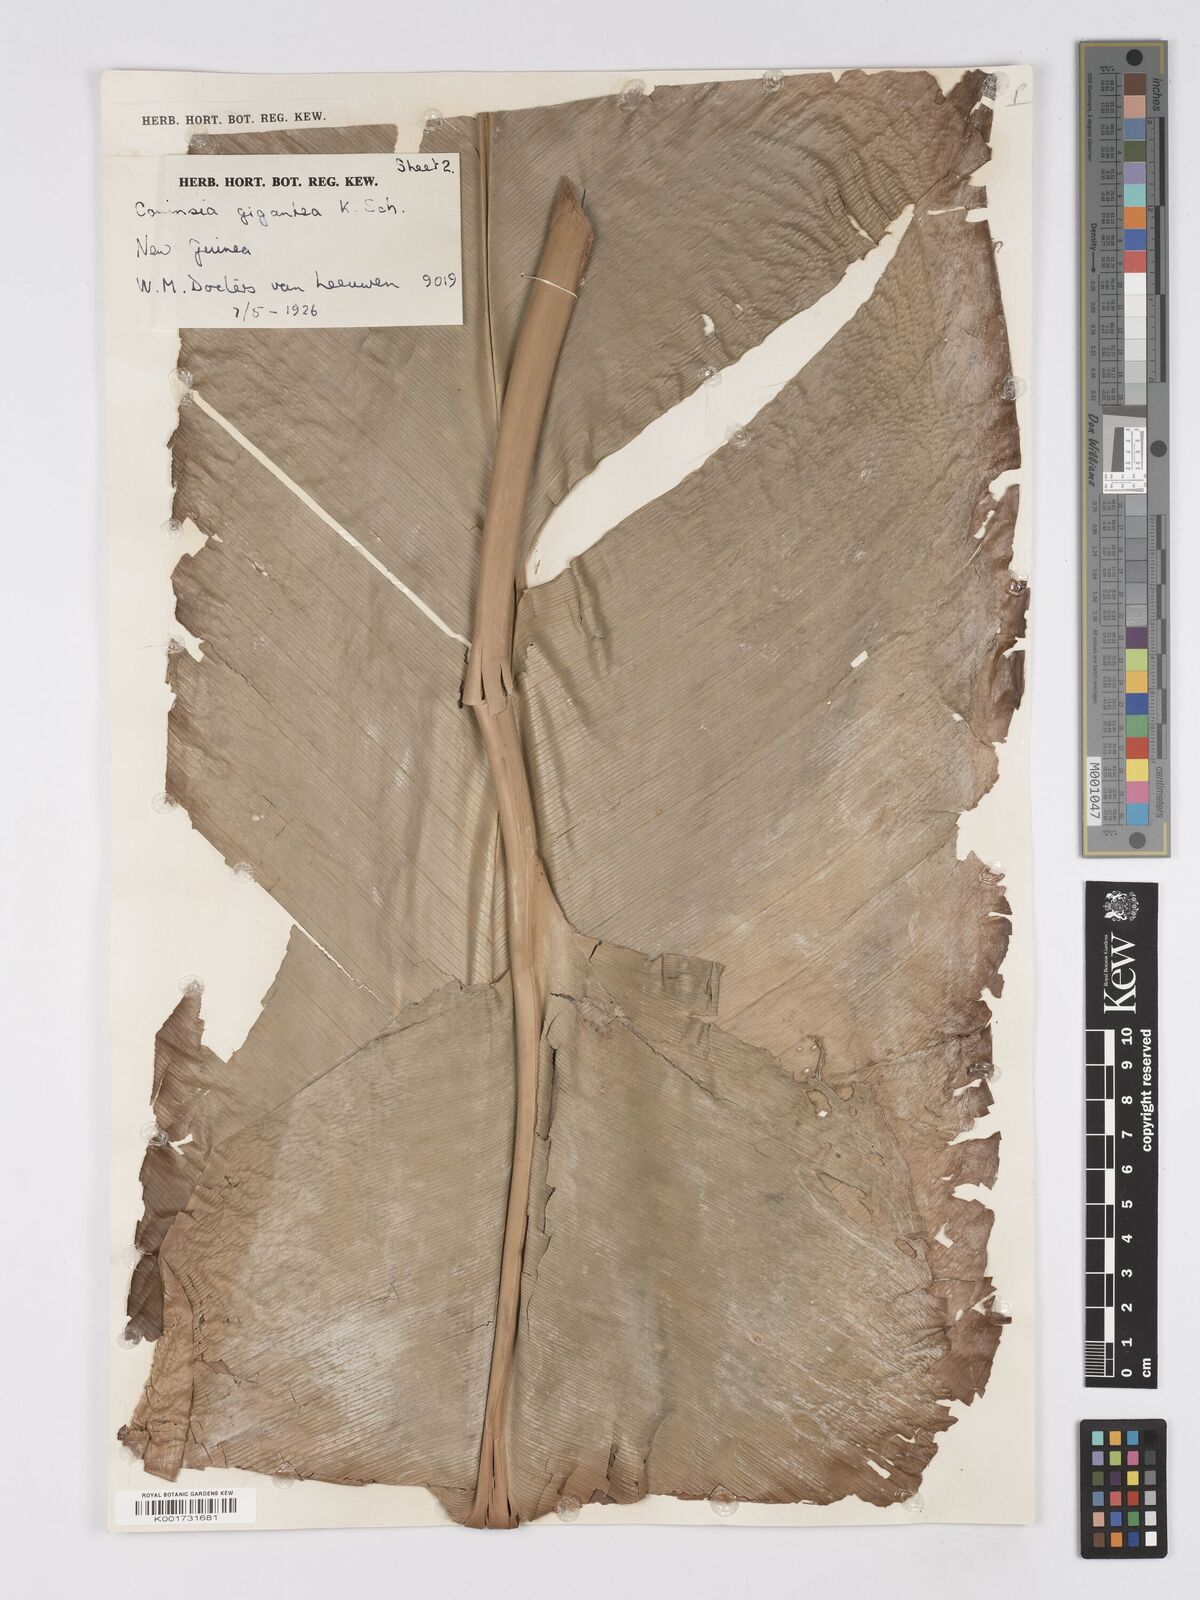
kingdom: Plantae
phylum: Tracheophyta
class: Liliopsida
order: Zingiberales
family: Marantaceae
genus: Phrynium
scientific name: Phrynium giganteum
